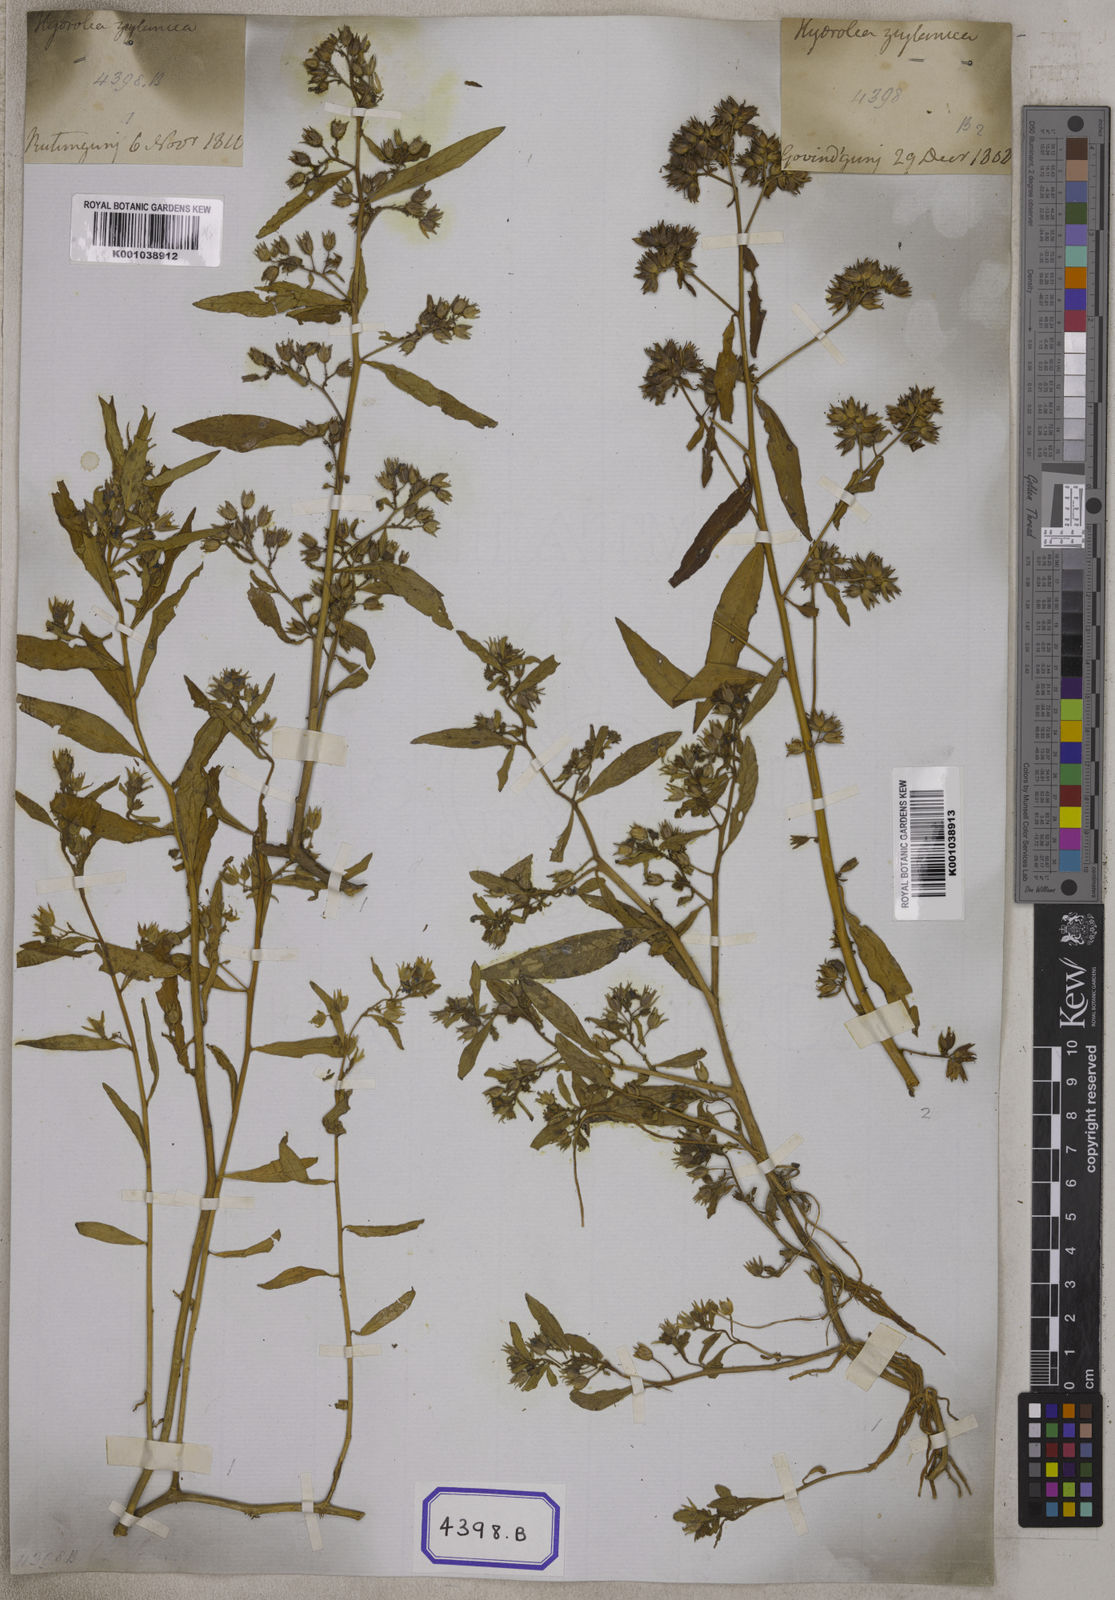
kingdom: Plantae
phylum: Tracheophyta
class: Magnoliopsida
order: Solanales
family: Hydroleaceae
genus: Hydrolea
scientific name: Hydrolea zeylanica
